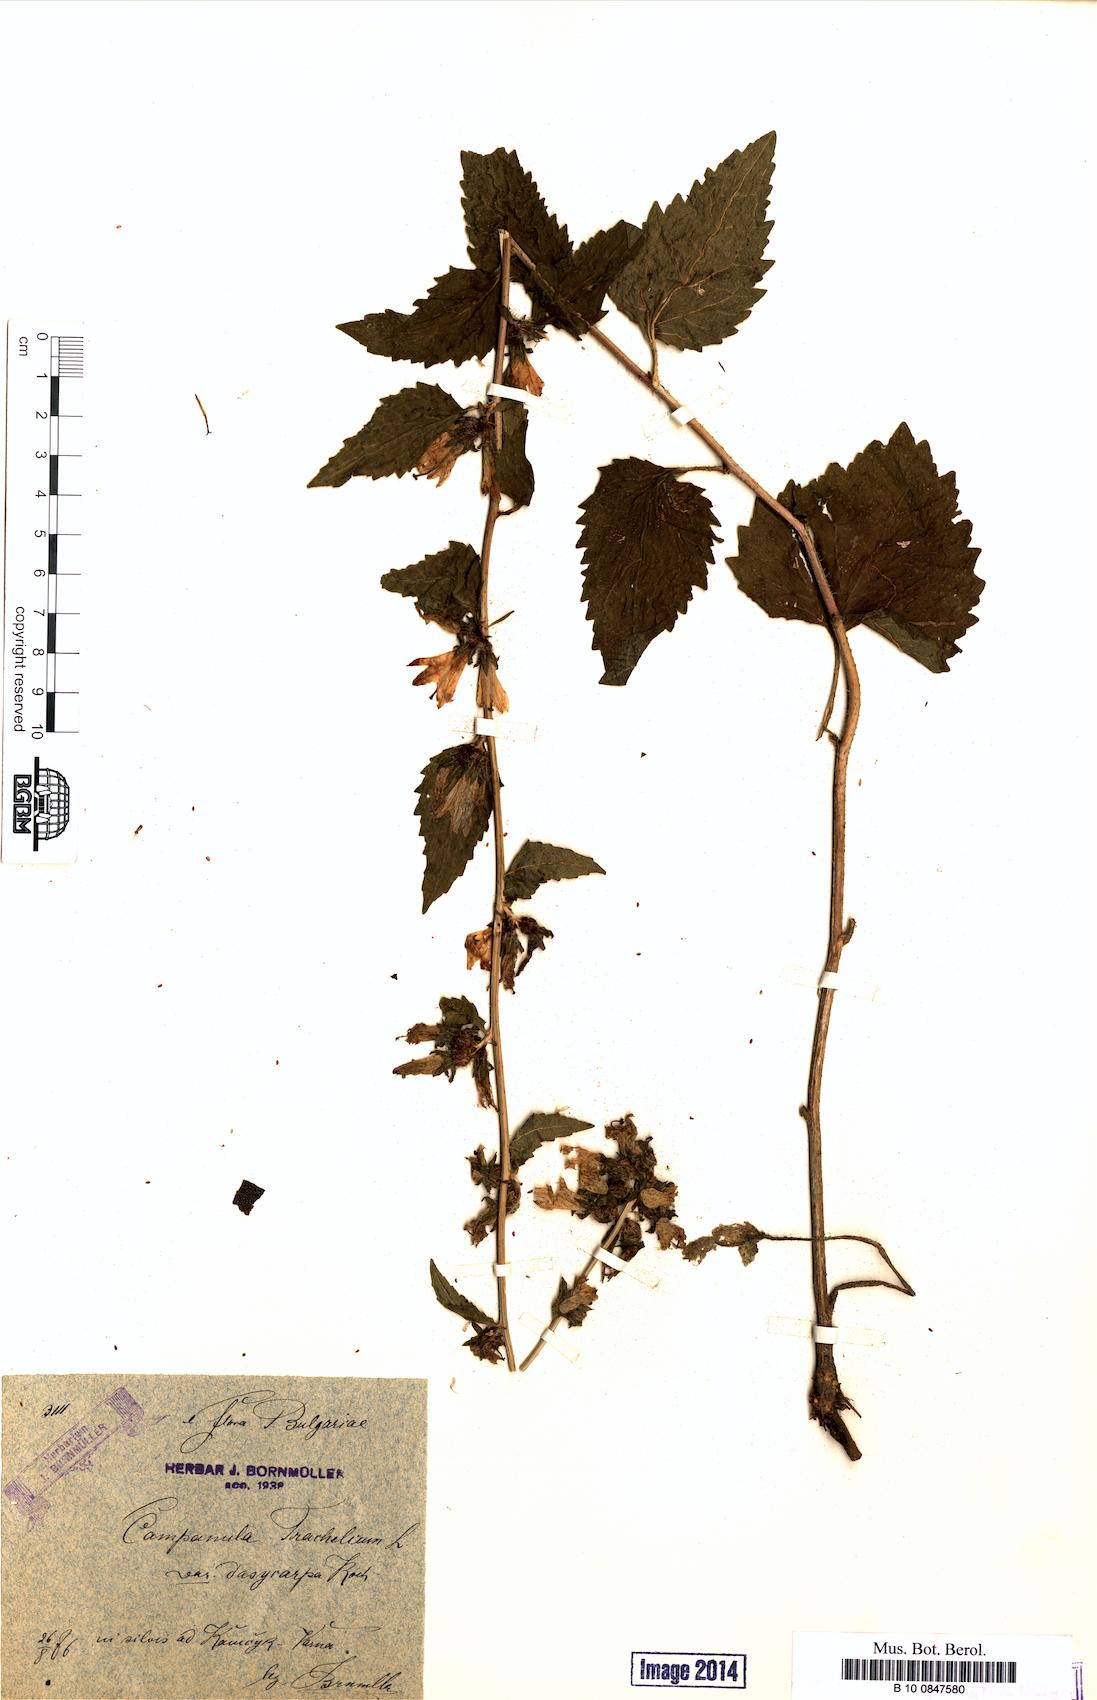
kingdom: Plantae
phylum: Tracheophyta
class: Magnoliopsida
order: Asterales
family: Campanulaceae
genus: Campanula
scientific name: Campanula trachelium
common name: Nettle-leaved bellflower
